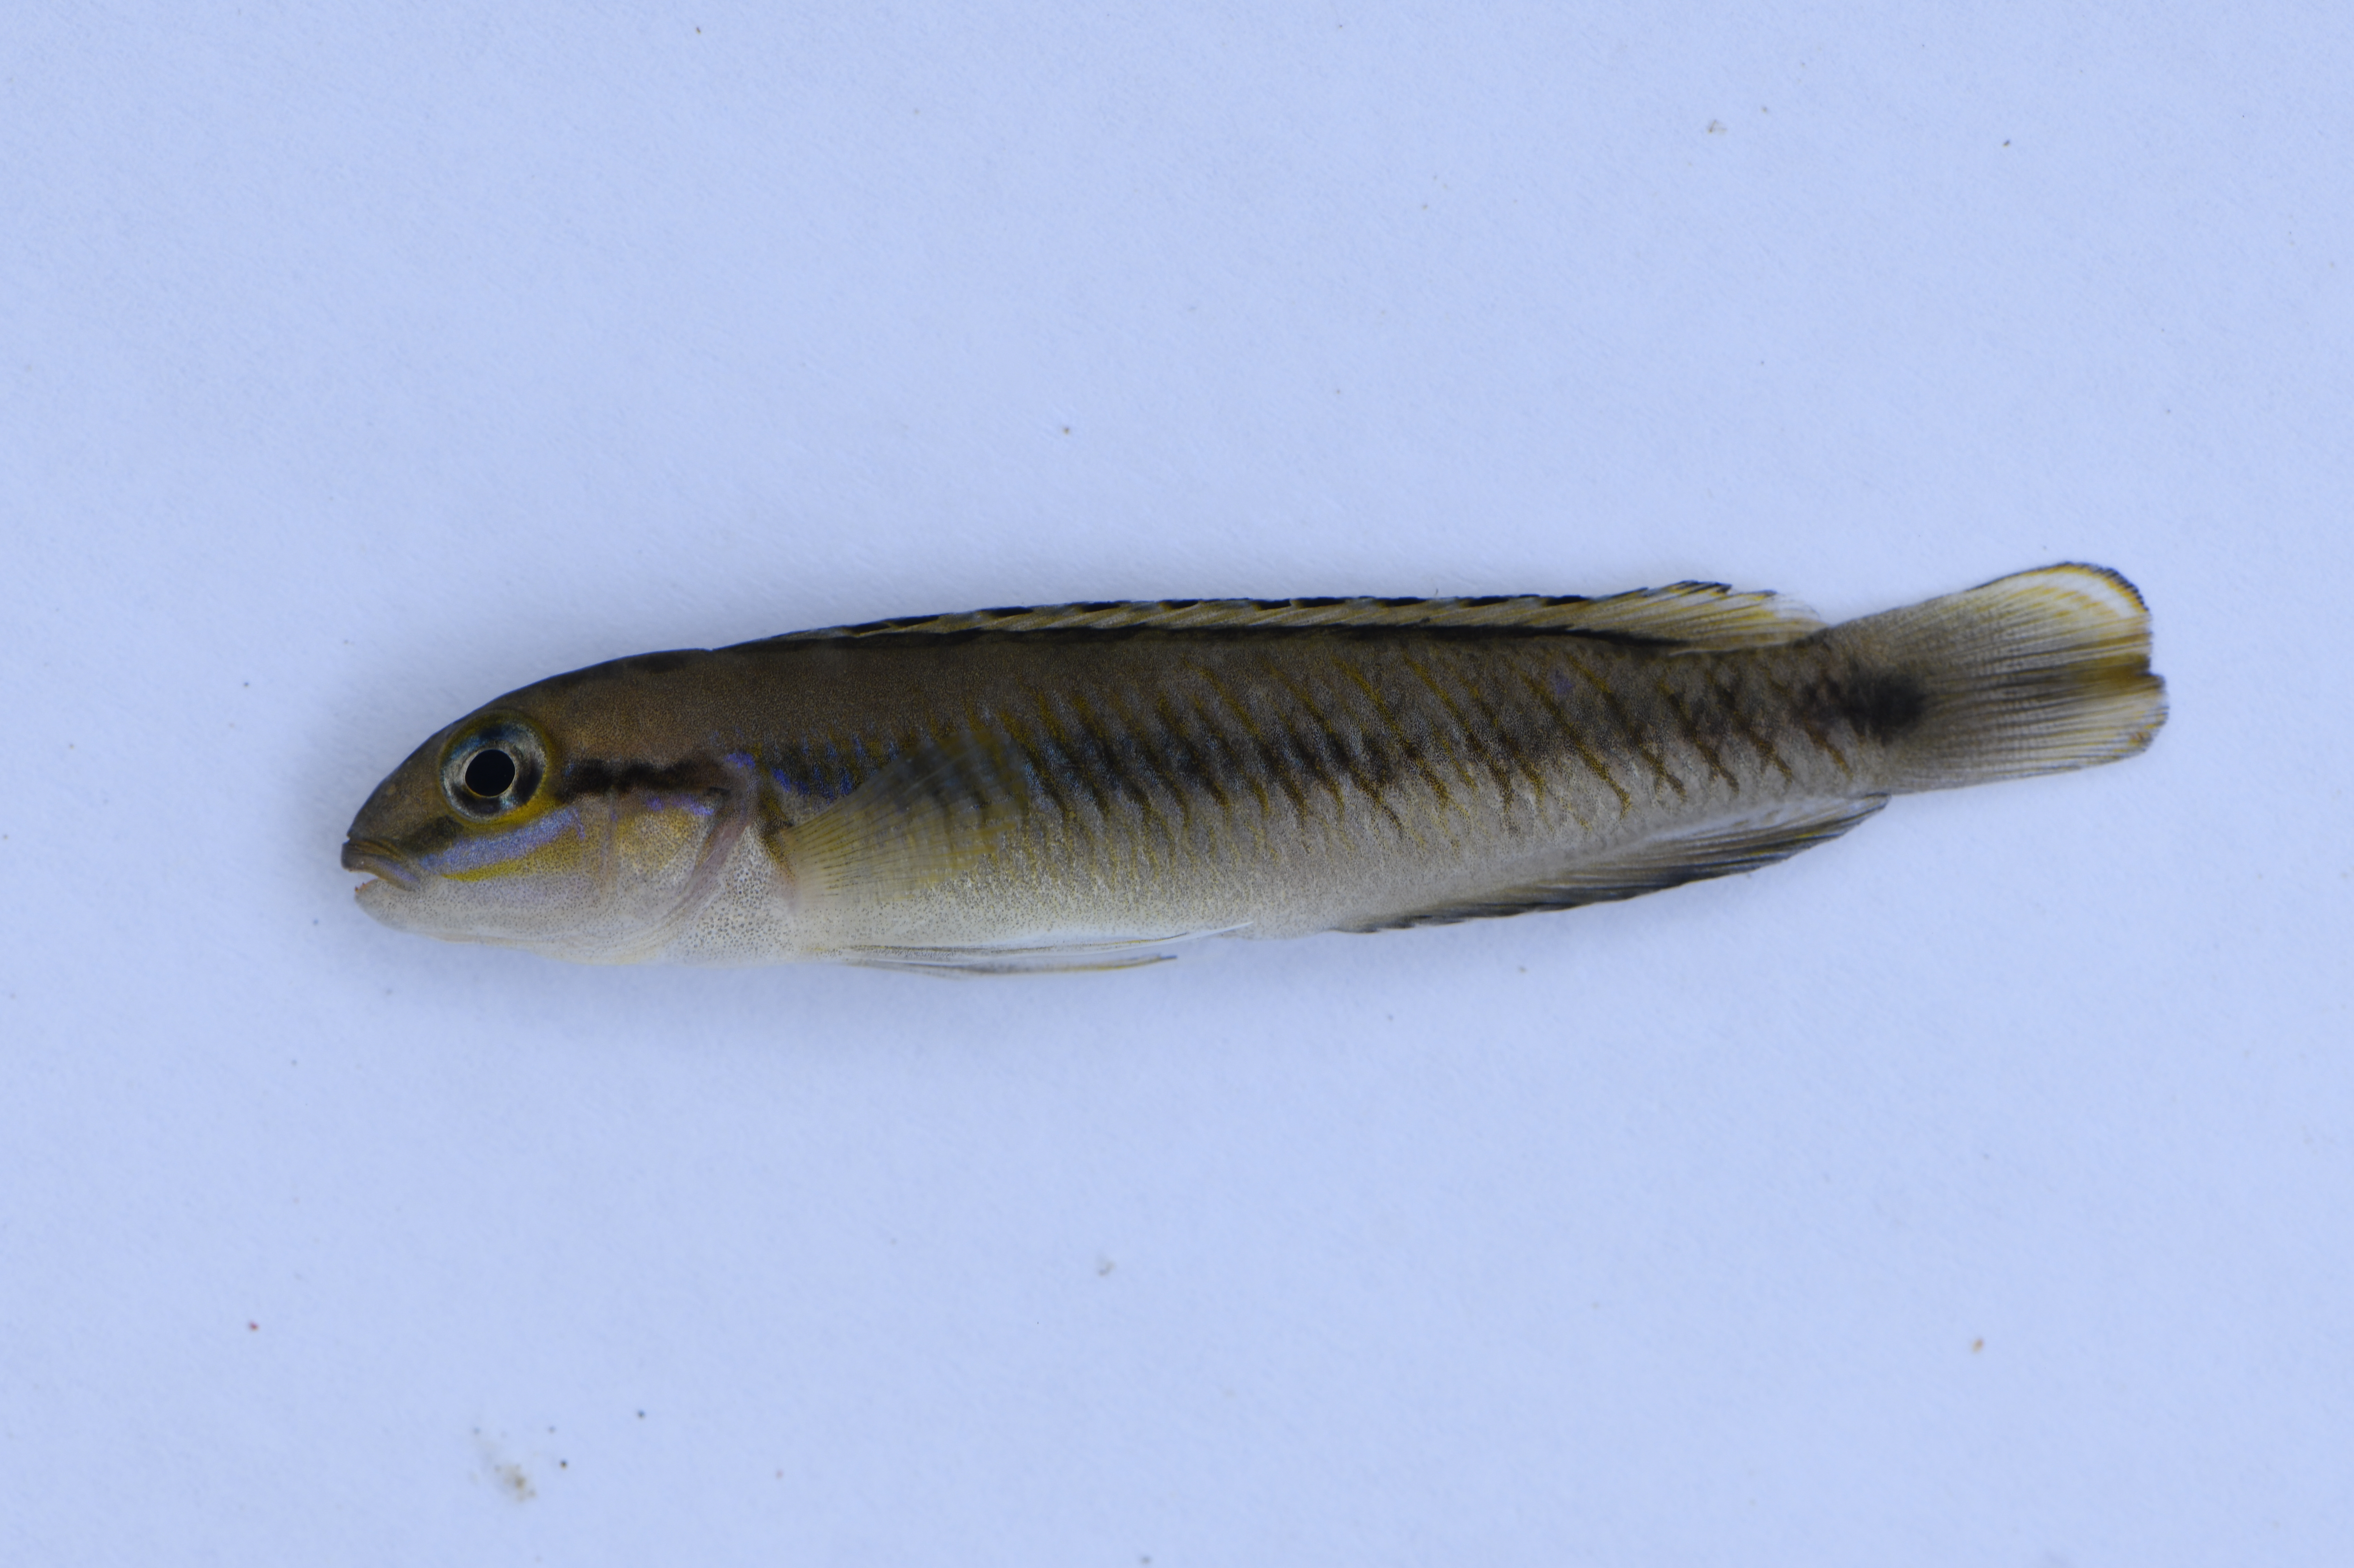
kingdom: Animalia
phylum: Chordata
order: Perciformes
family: Cichlidae
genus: Telmatochromis
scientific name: Telmatochromis vittatus
